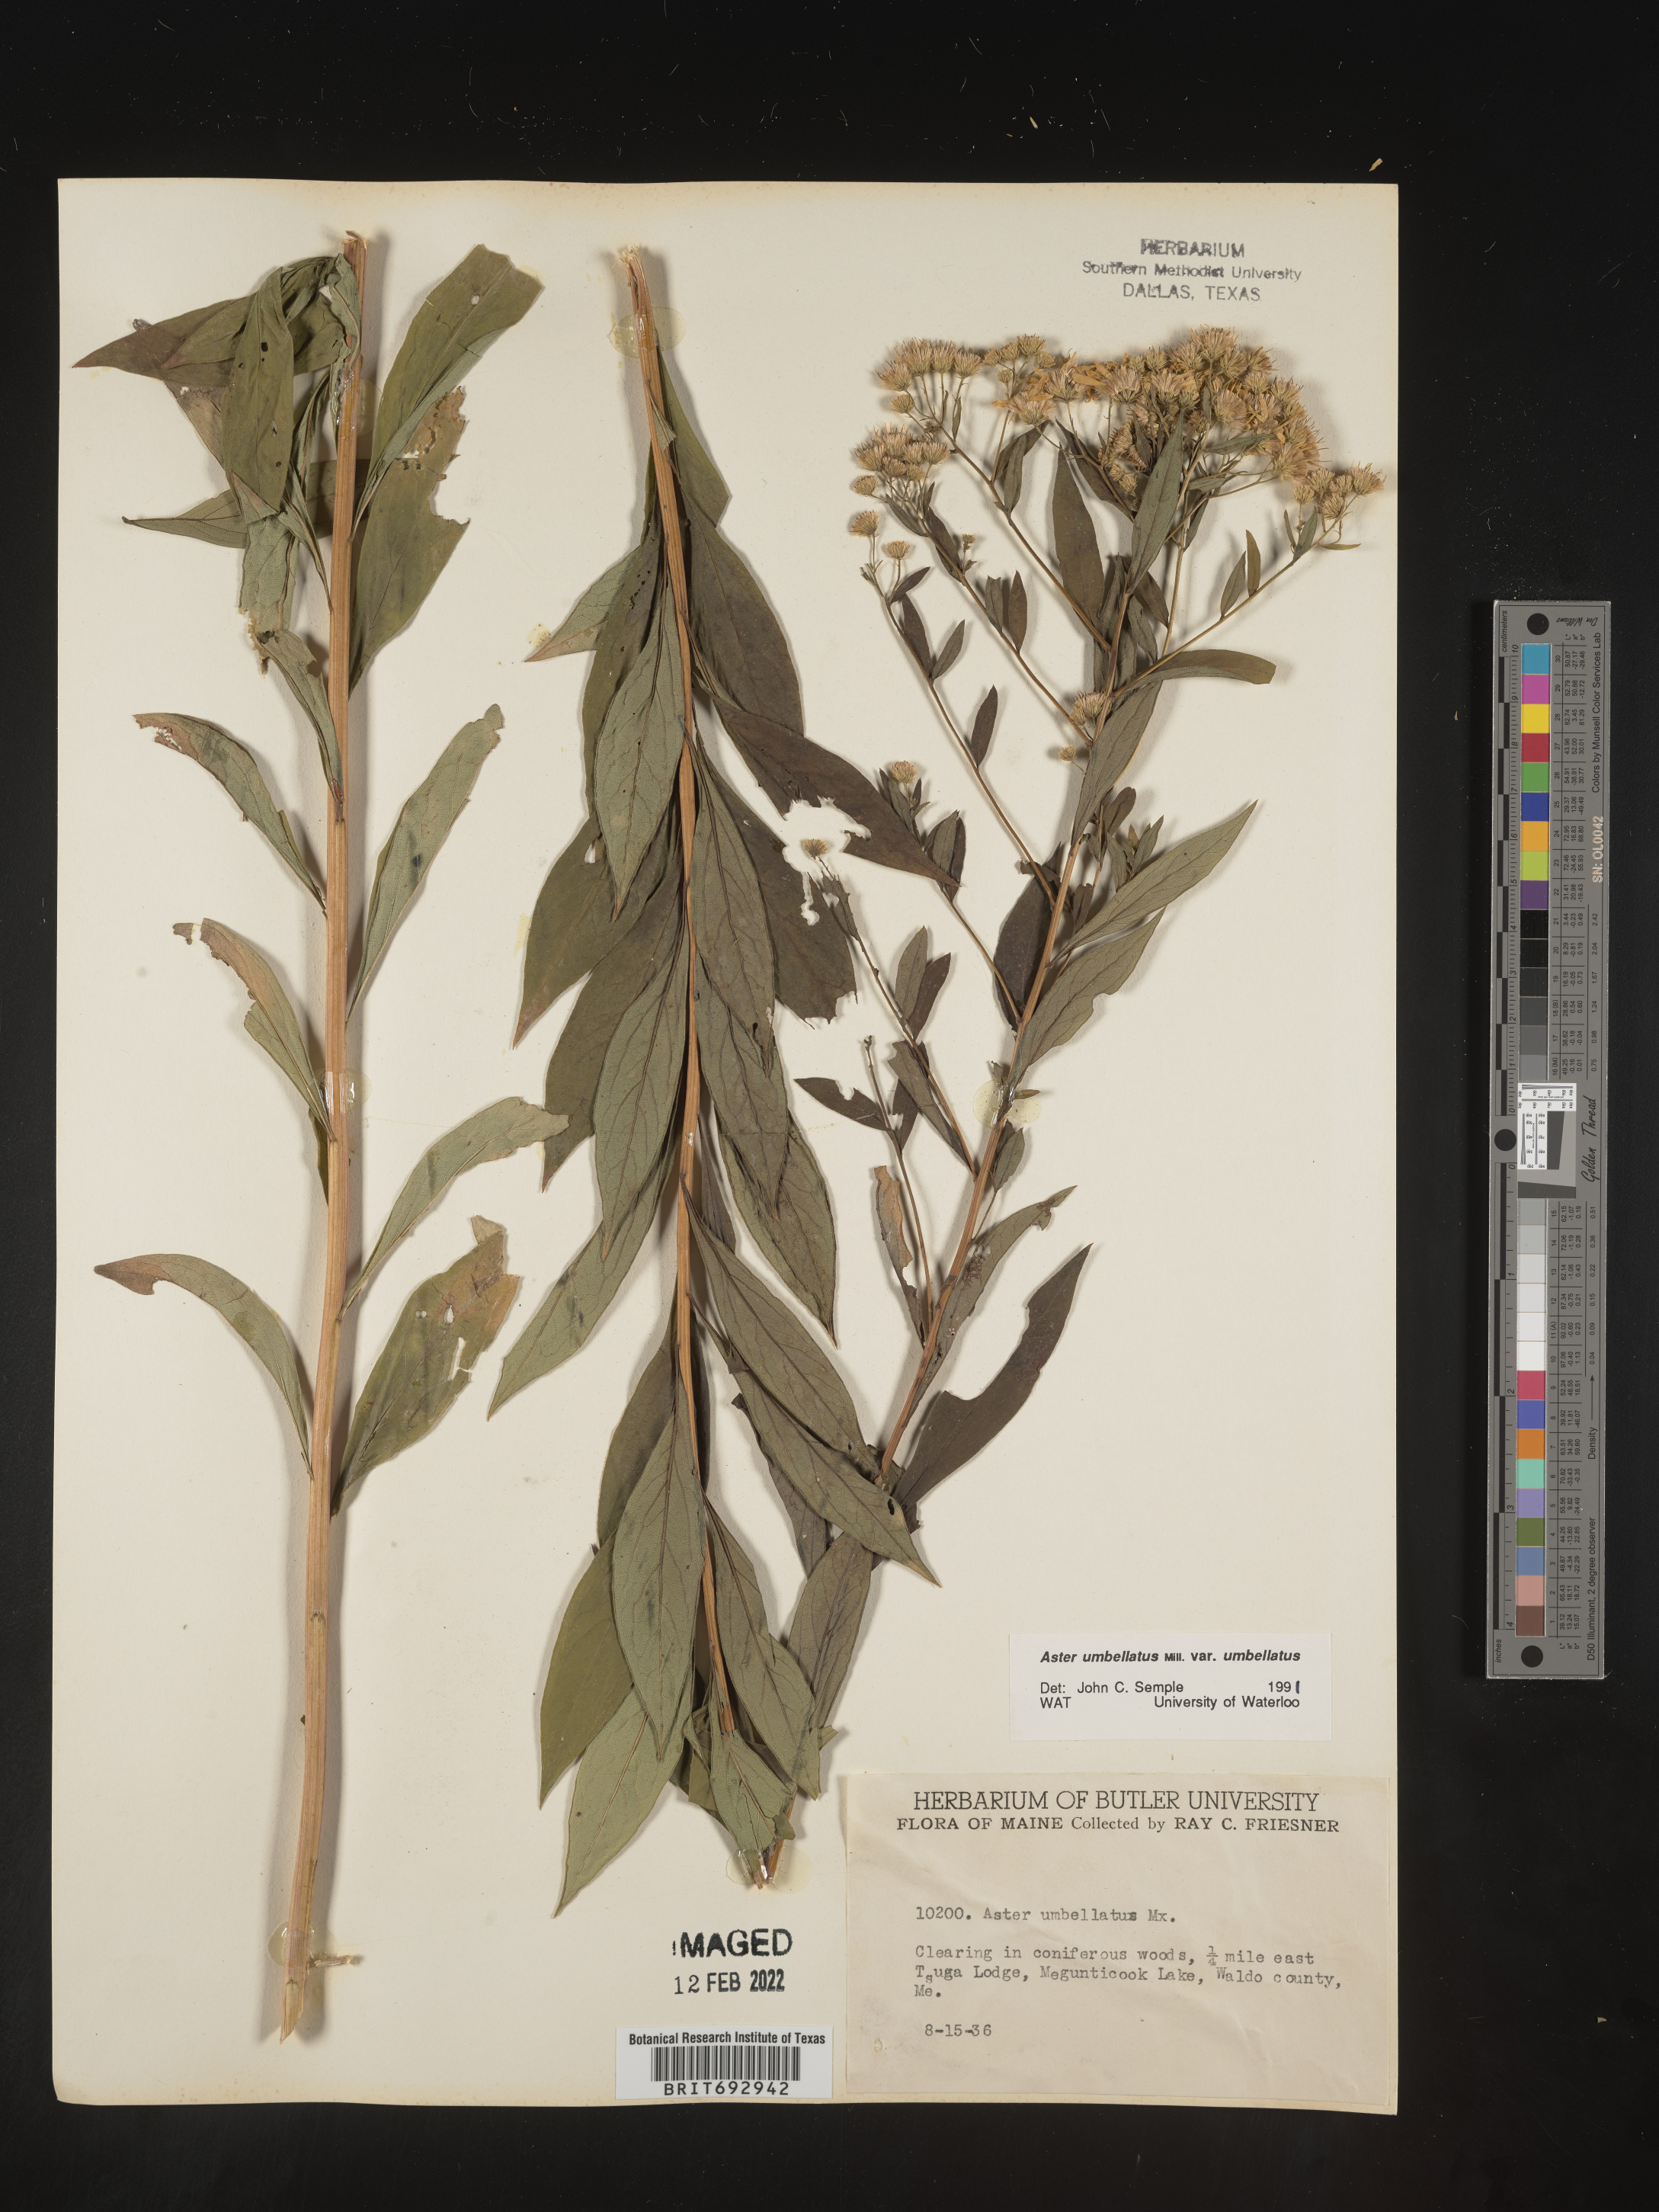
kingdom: Plantae
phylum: Tracheophyta
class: Magnoliopsida
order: Asterales
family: Asteraceae
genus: Doellingeria
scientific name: Doellingeria umbellata
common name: Flat-top white aster
